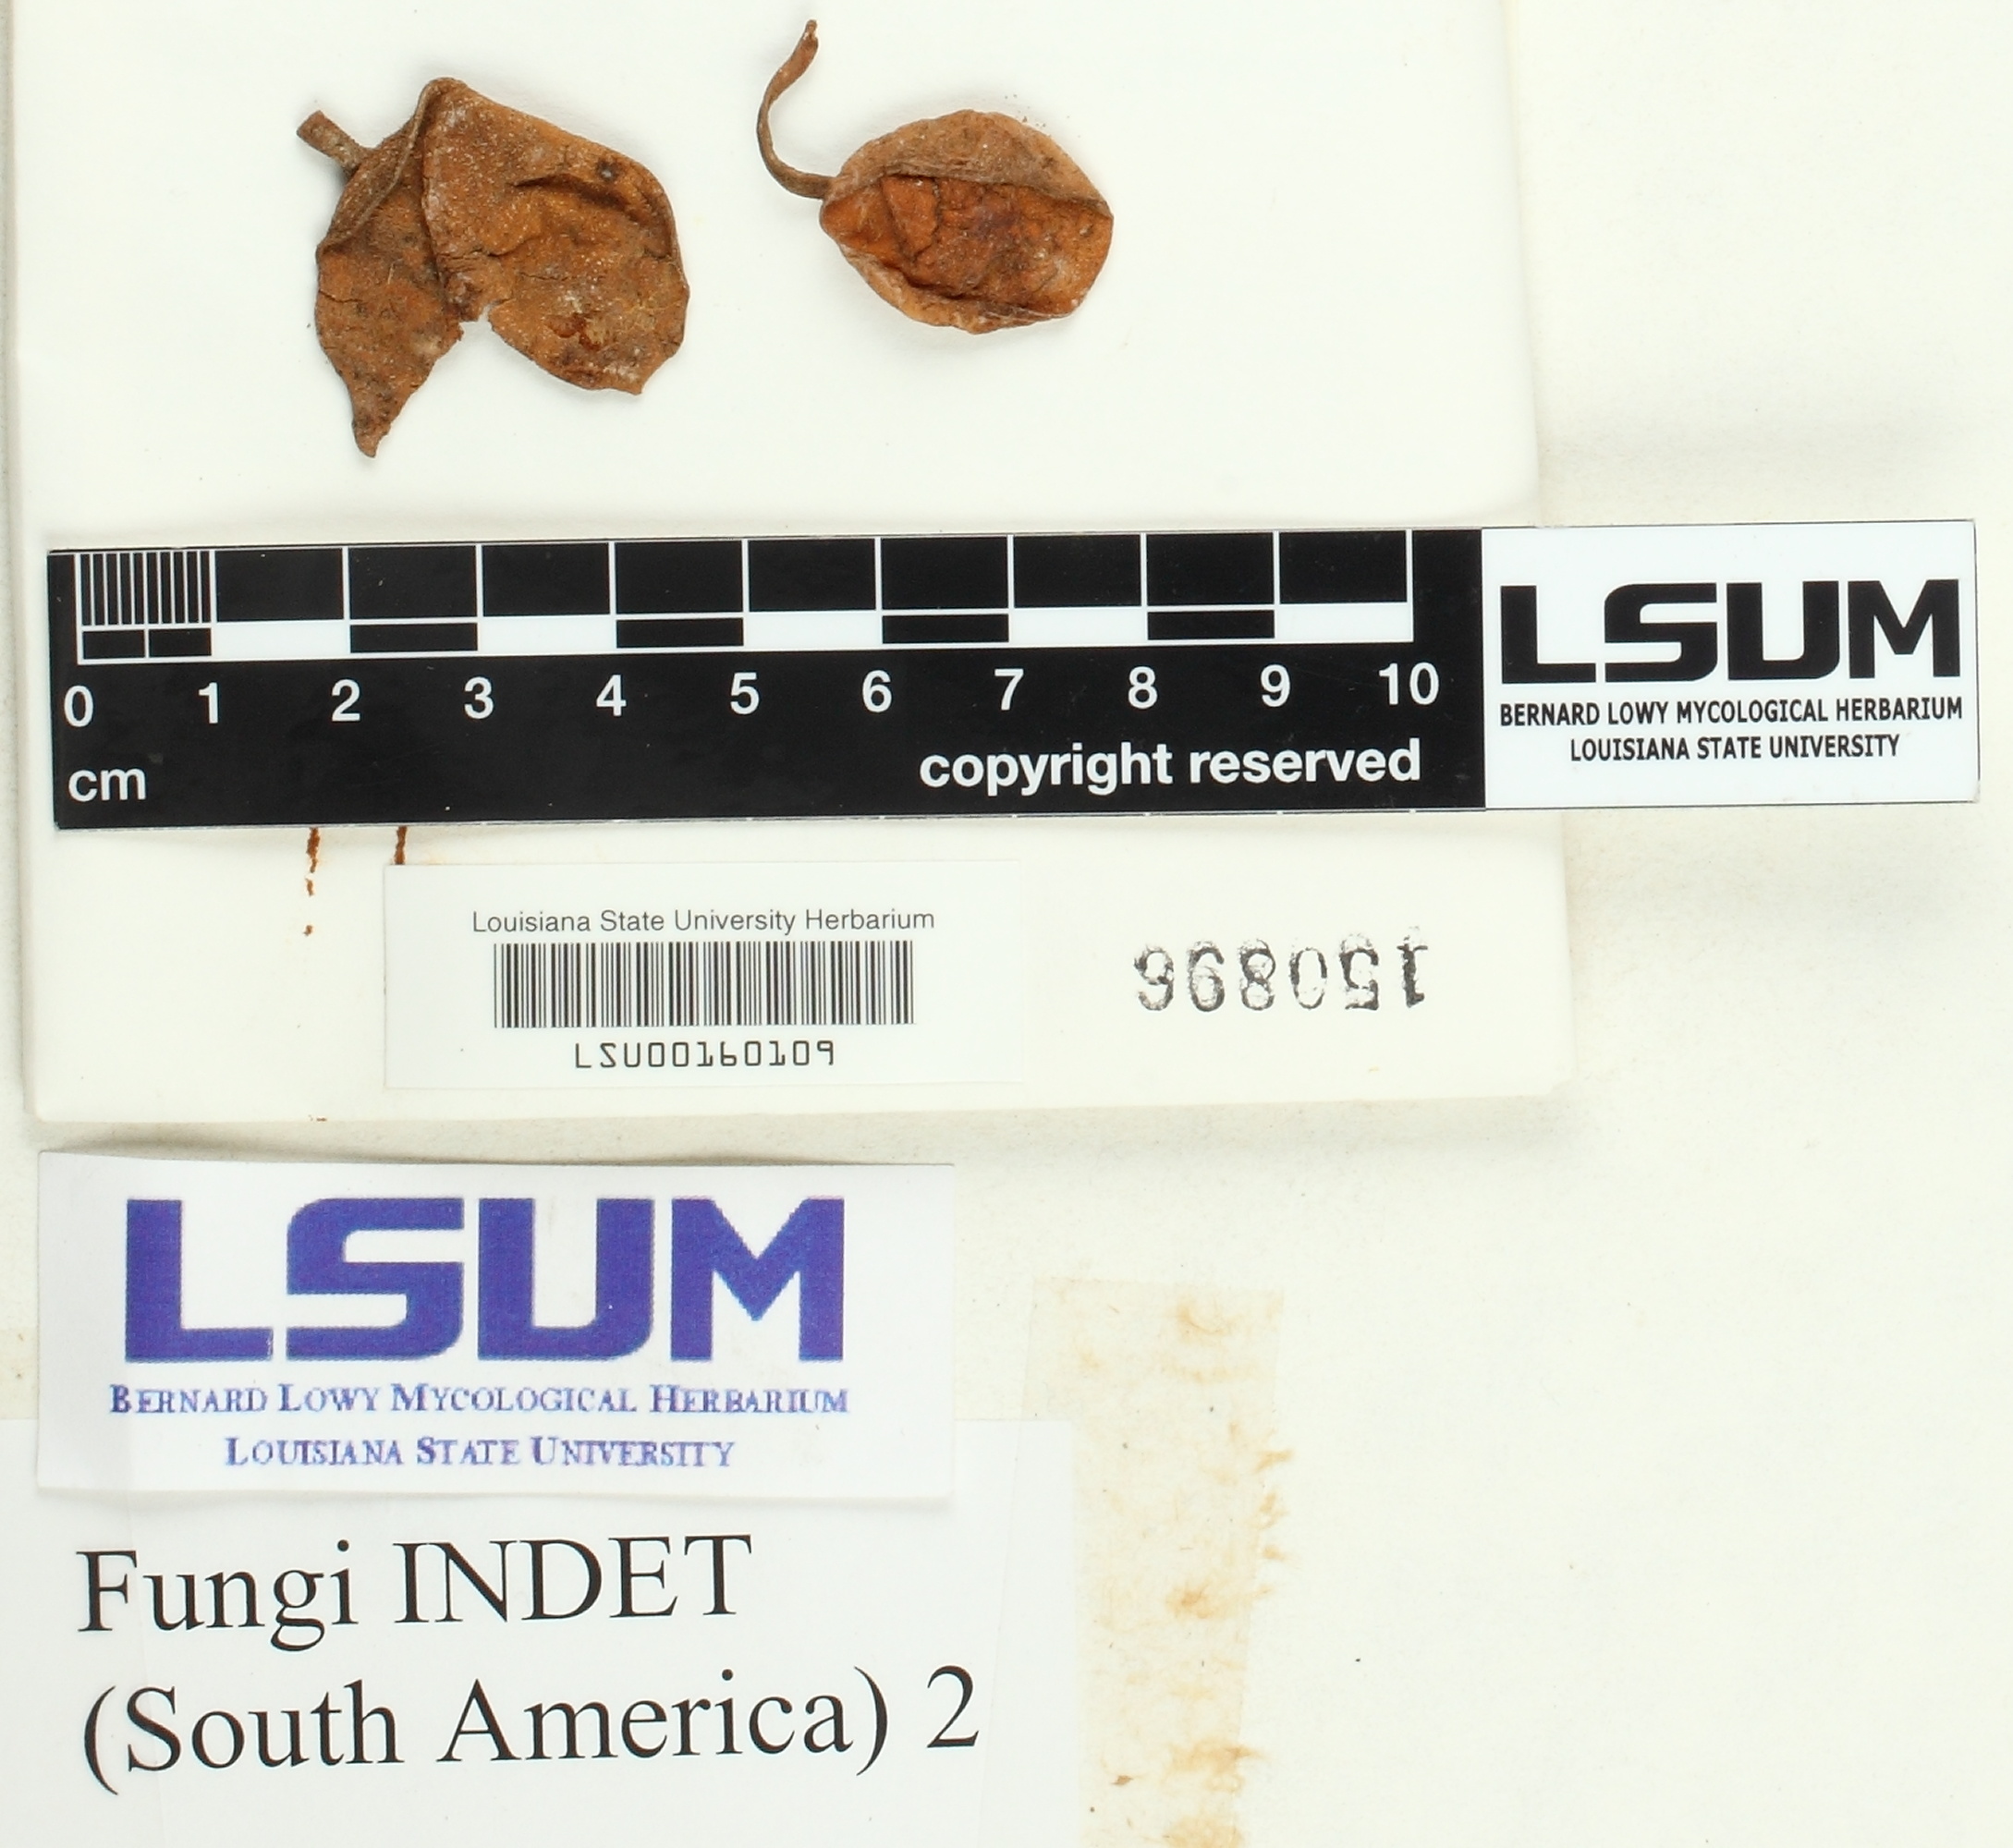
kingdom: Fungi
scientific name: Fungi
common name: Fungi
